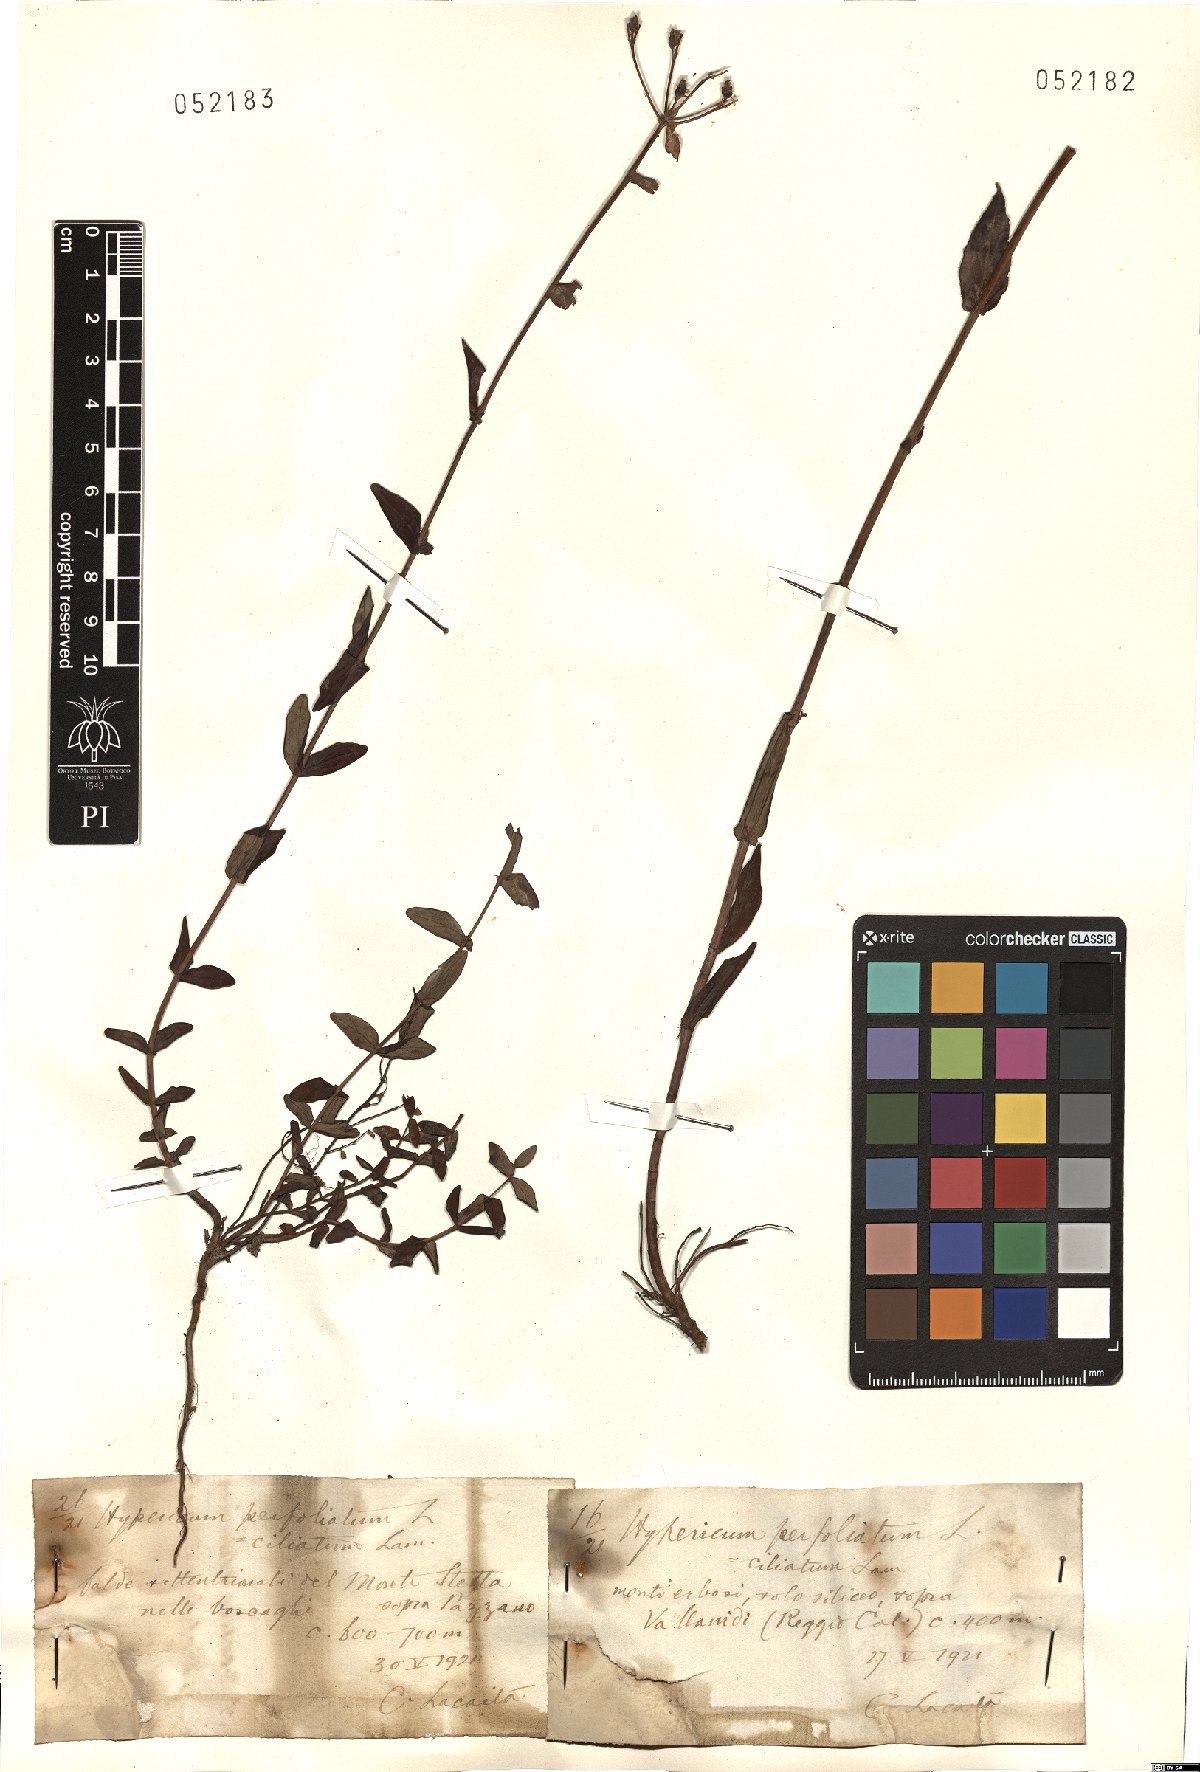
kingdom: Plantae
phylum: Tracheophyta
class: Magnoliopsida
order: Malpighiales
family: Hypericaceae
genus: Hypericum
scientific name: Hypericum perfoliatum
